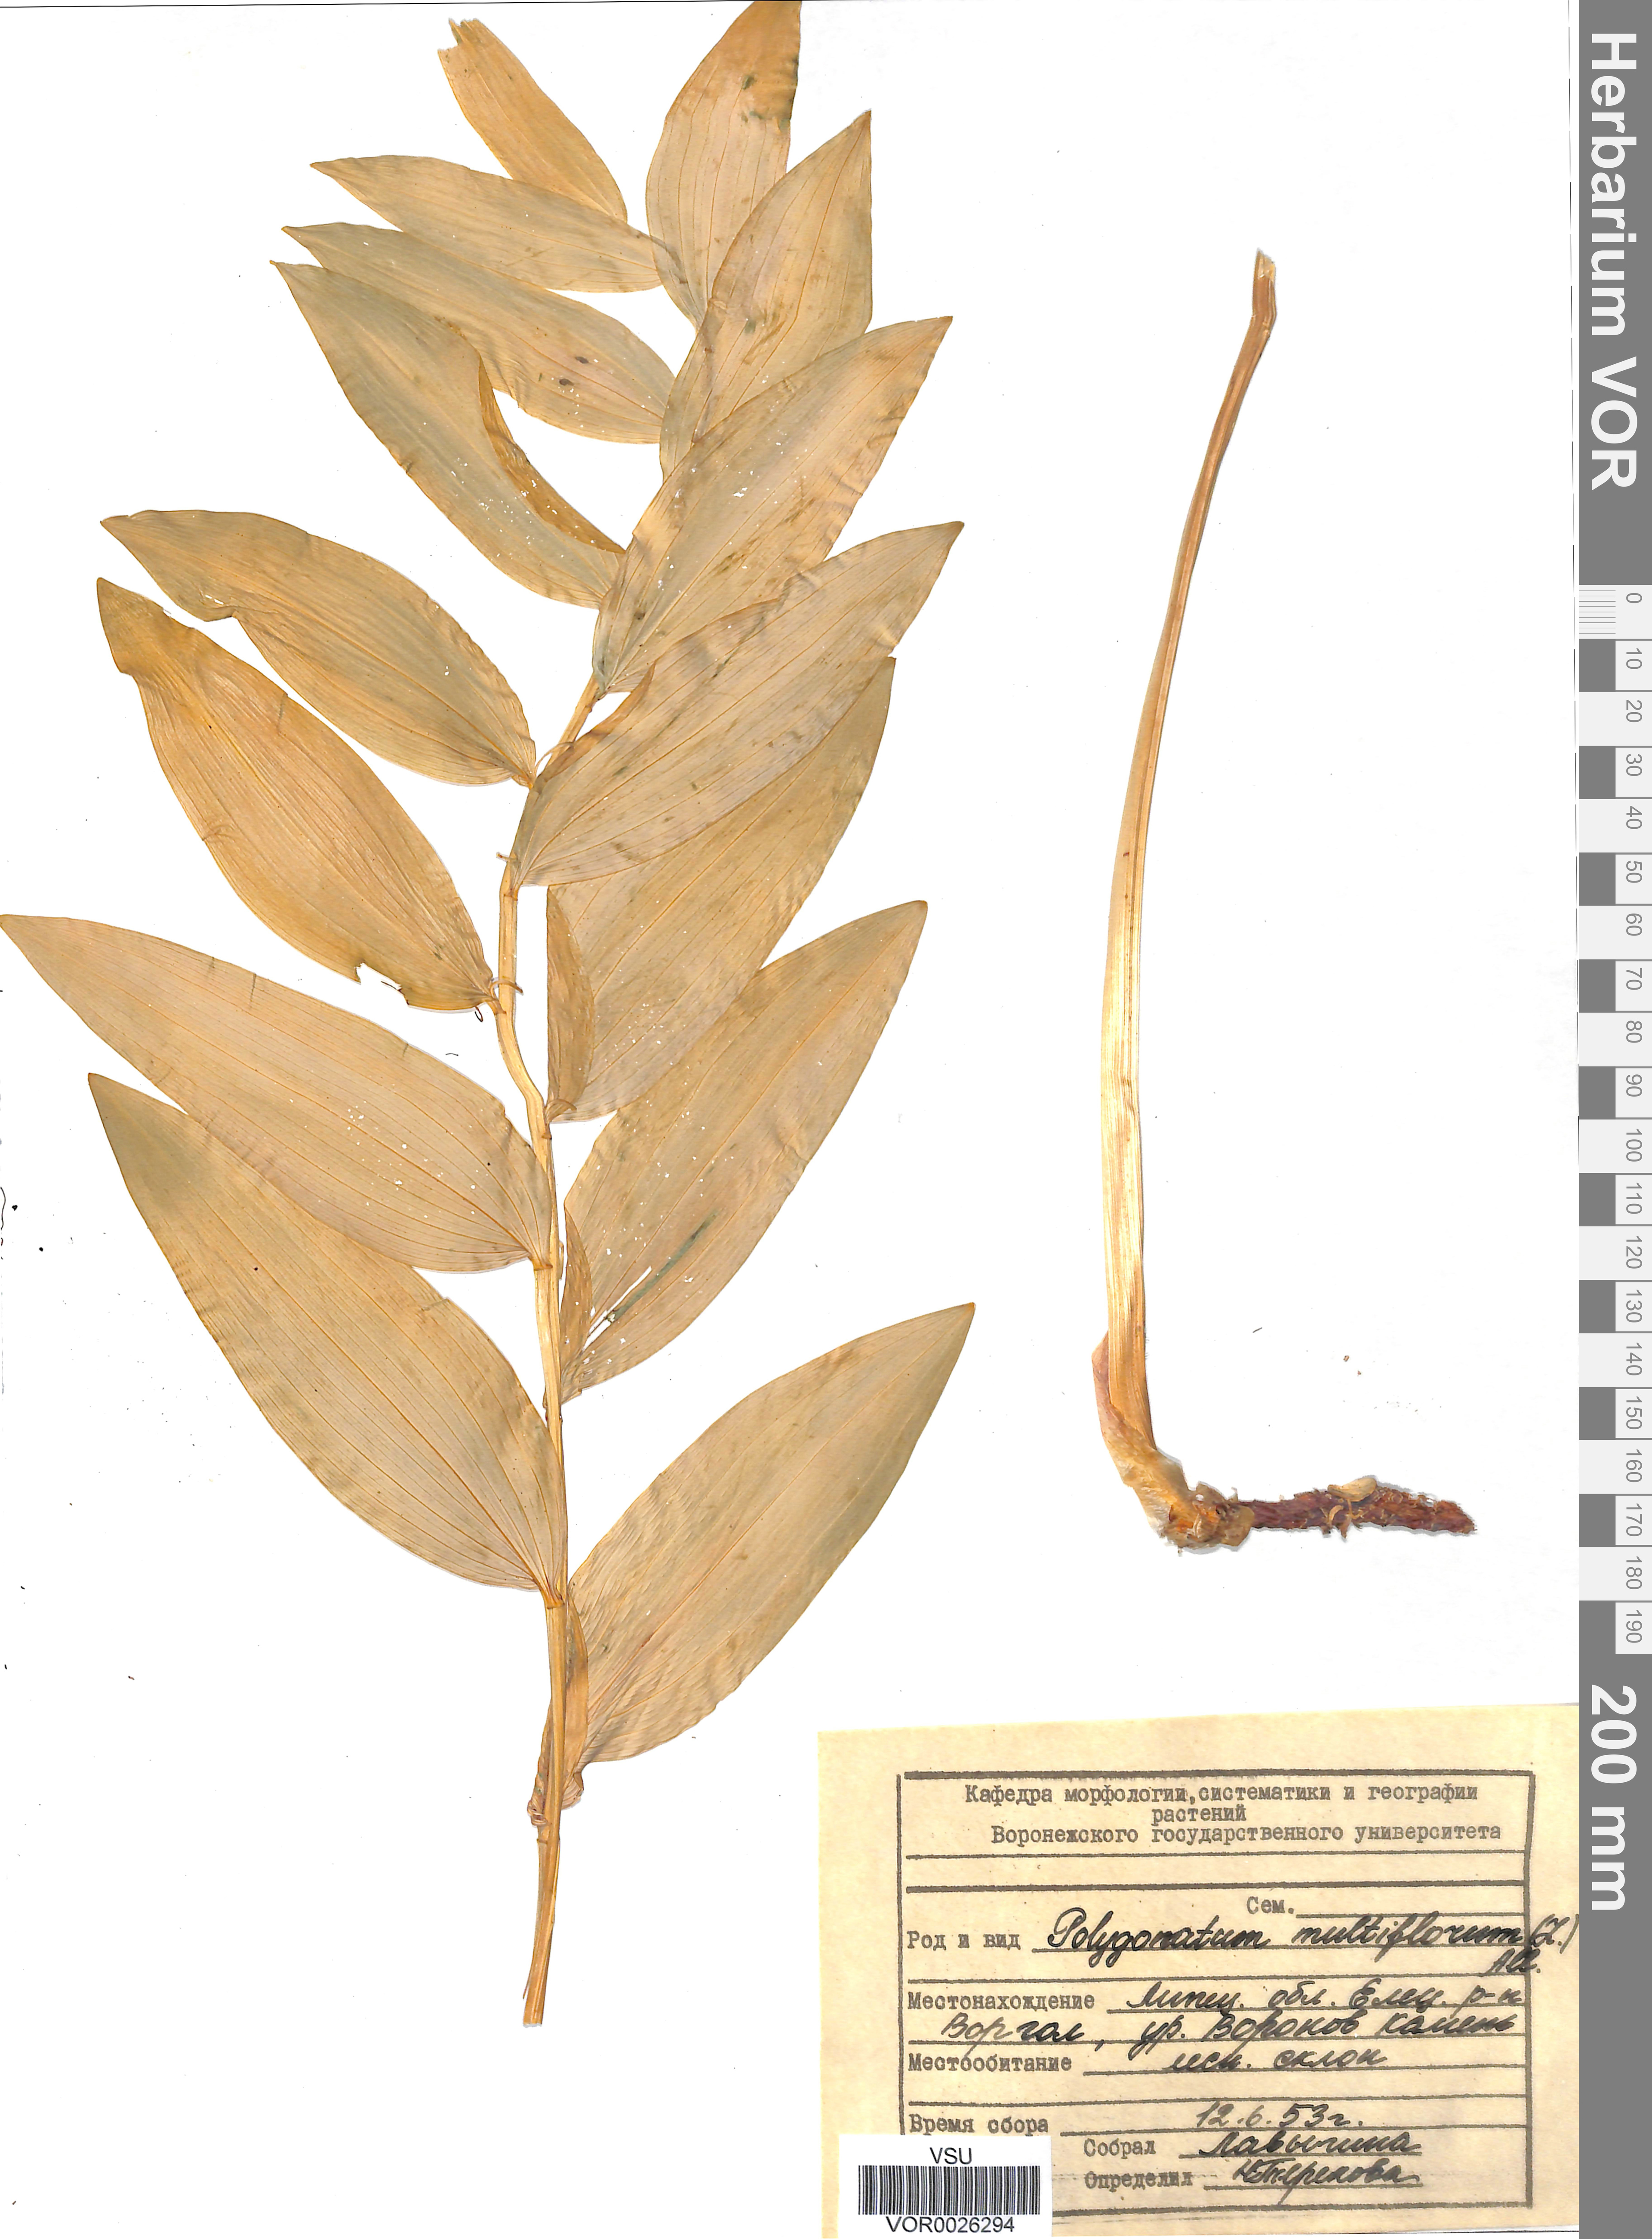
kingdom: Plantae
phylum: Tracheophyta
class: Liliopsida
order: Asparagales
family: Asparagaceae
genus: Polygonatum
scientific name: Polygonatum multiflorum
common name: Solomon's-seal
